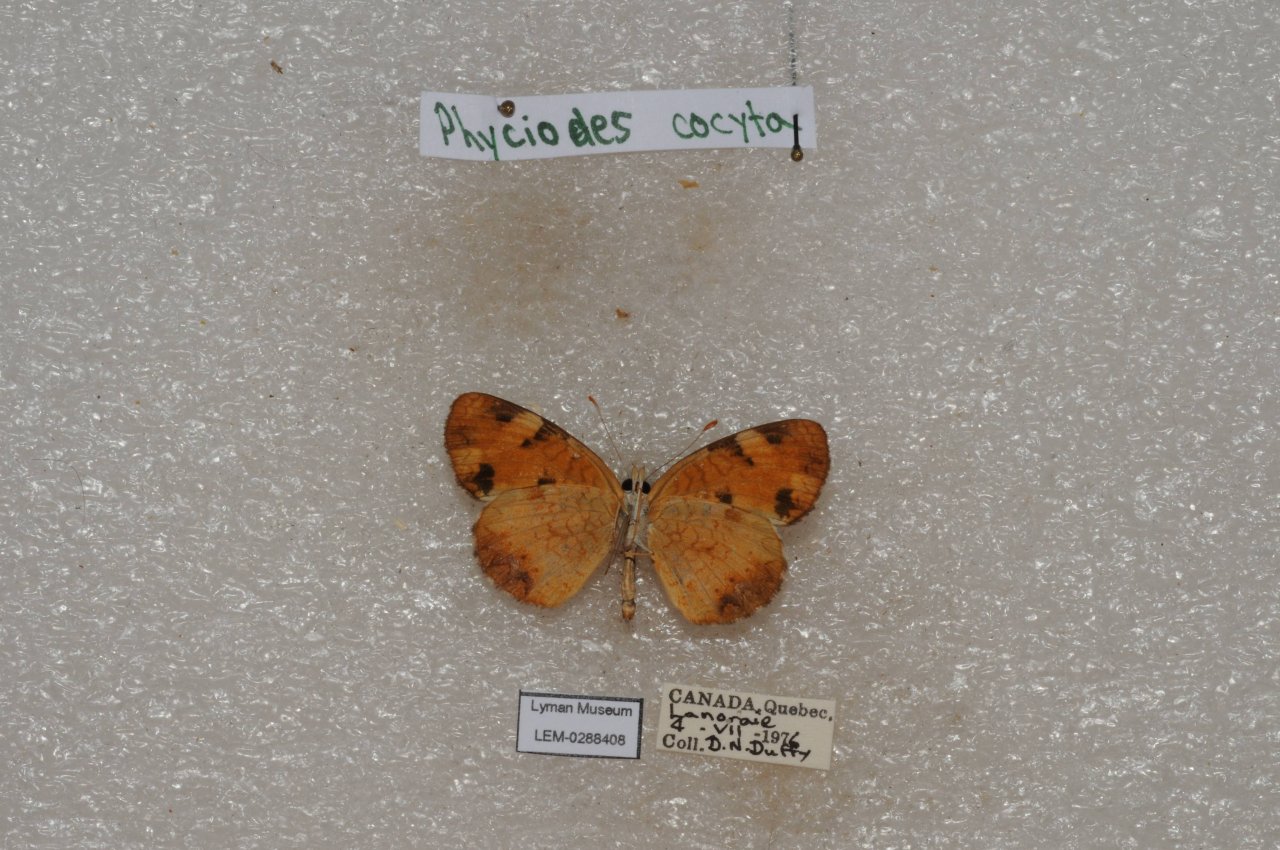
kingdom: Animalia
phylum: Arthropoda
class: Insecta
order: Lepidoptera
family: Nymphalidae
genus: Phyciodes
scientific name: Phyciodes tharos
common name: Northern Crescent
